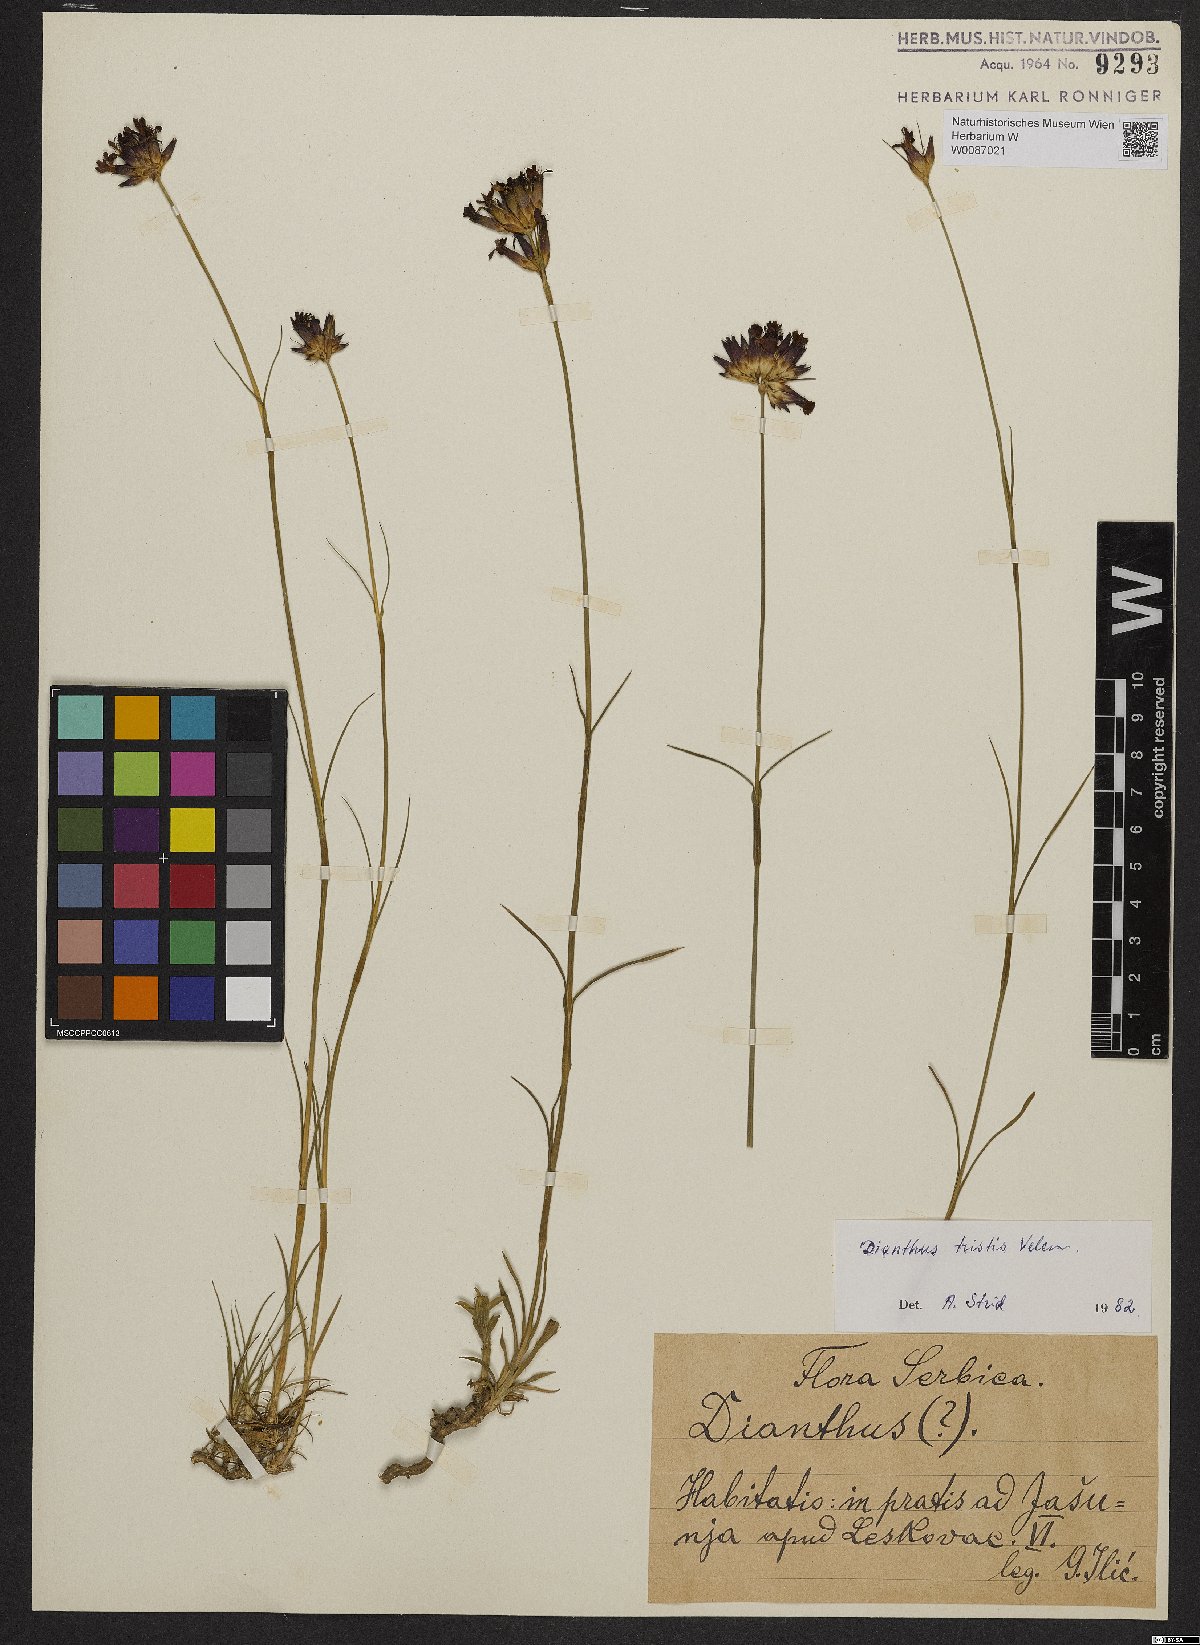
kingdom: Plantae
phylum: Tracheophyta
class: Magnoliopsida
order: Caryophyllales
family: Caryophyllaceae
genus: Dianthus
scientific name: Dianthus pancicii
